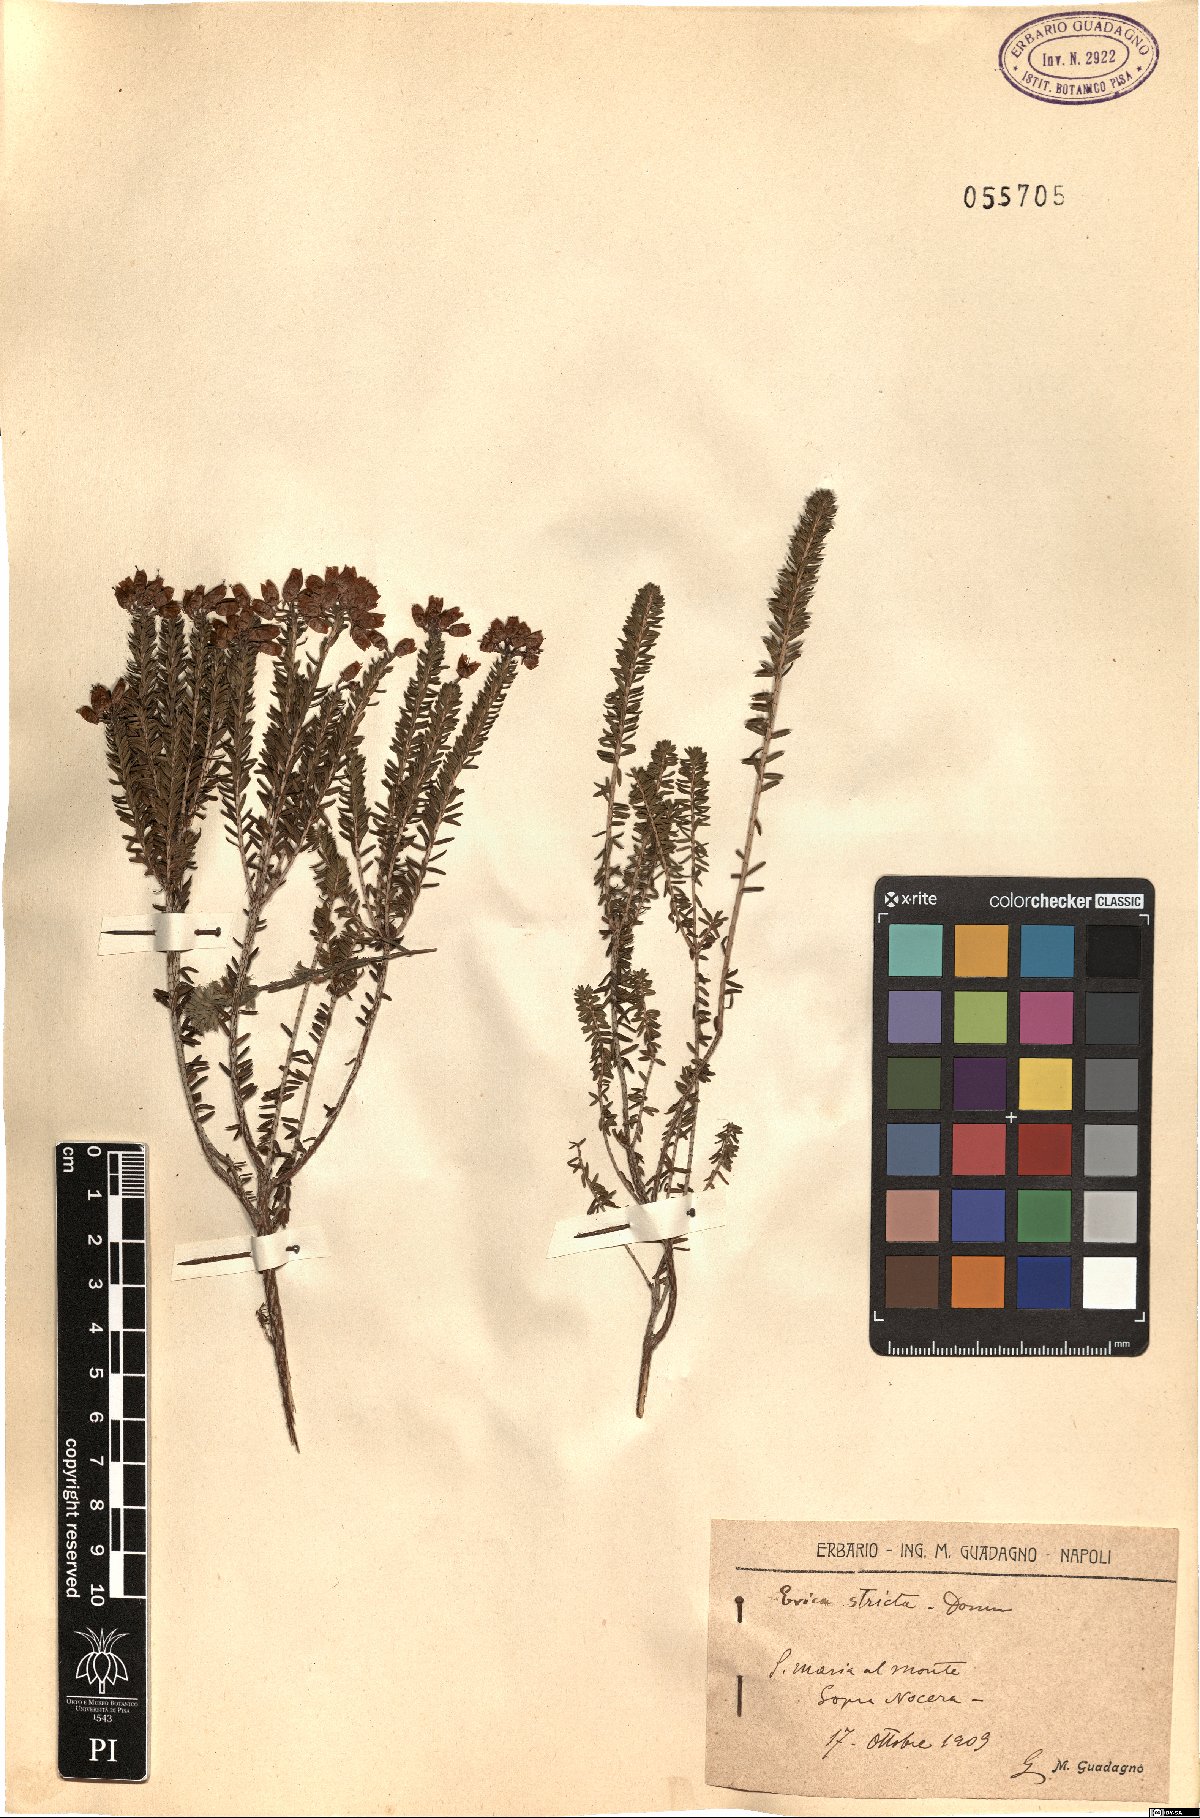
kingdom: Plantae
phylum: Tracheophyta
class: Magnoliopsida
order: Ericales
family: Ericaceae
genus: Erica
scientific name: Erica terminalis
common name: Corsican heath
